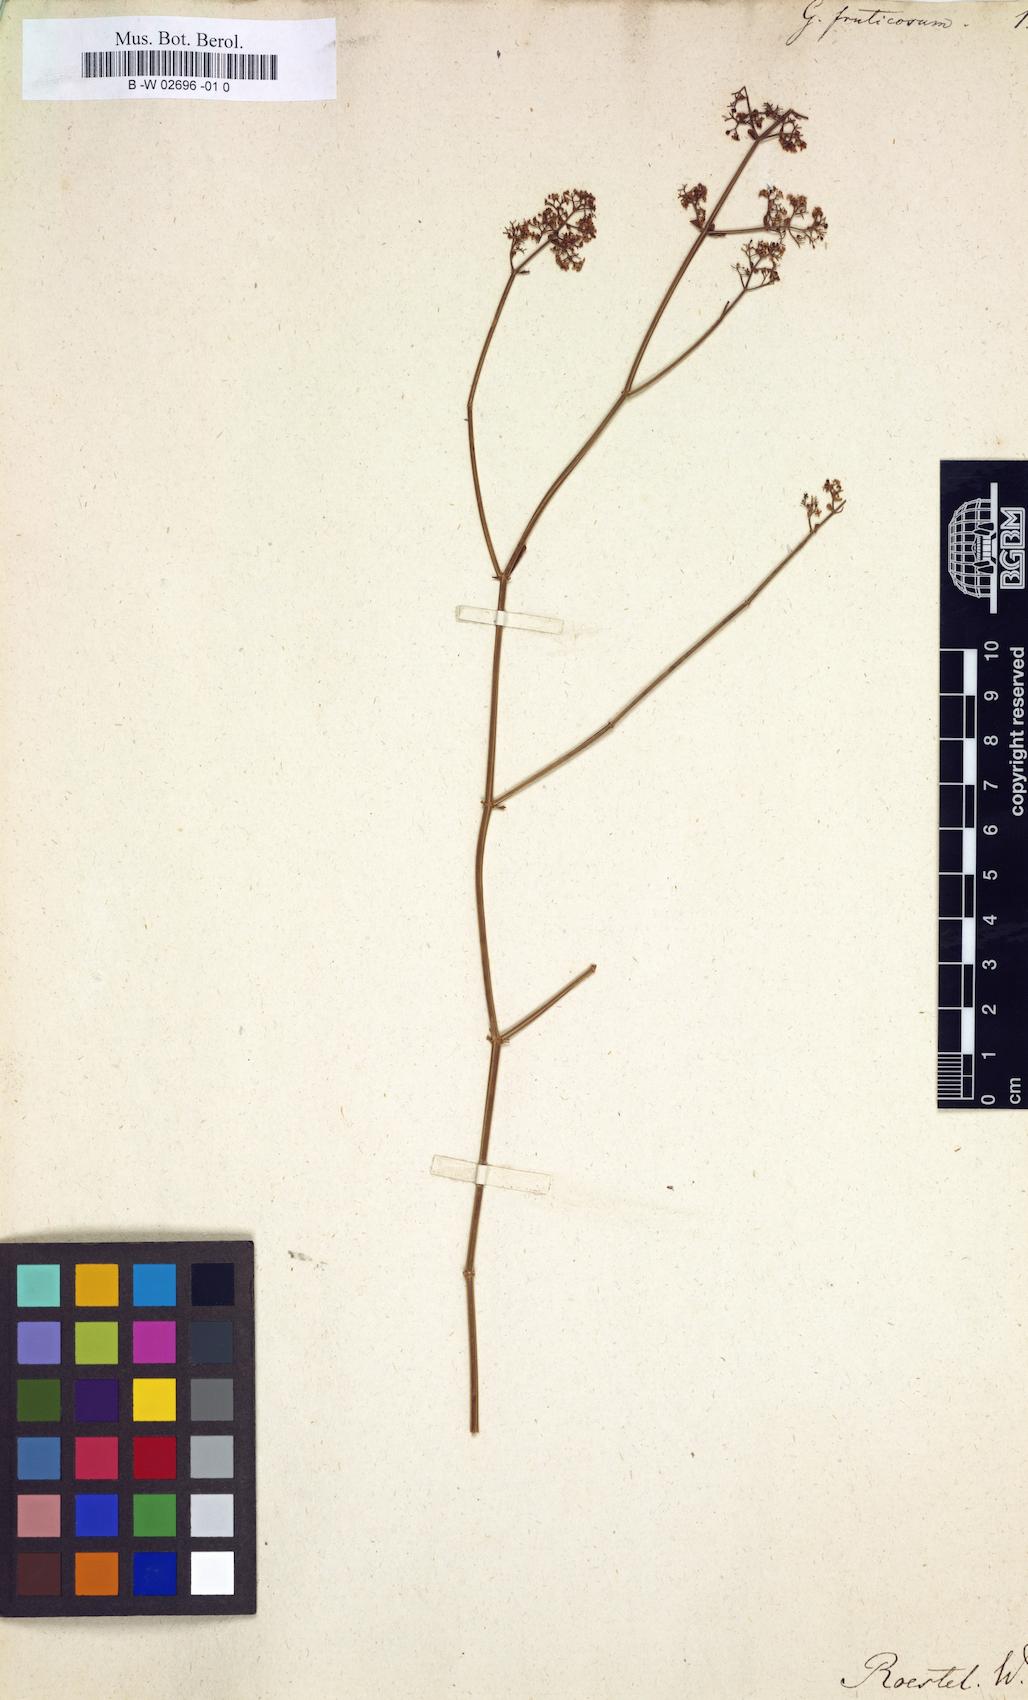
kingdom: Plantae
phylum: Tracheophyta
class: Magnoliopsida
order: Gentianales
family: Rubiaceae
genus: Galium
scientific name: Galium fruticosum
